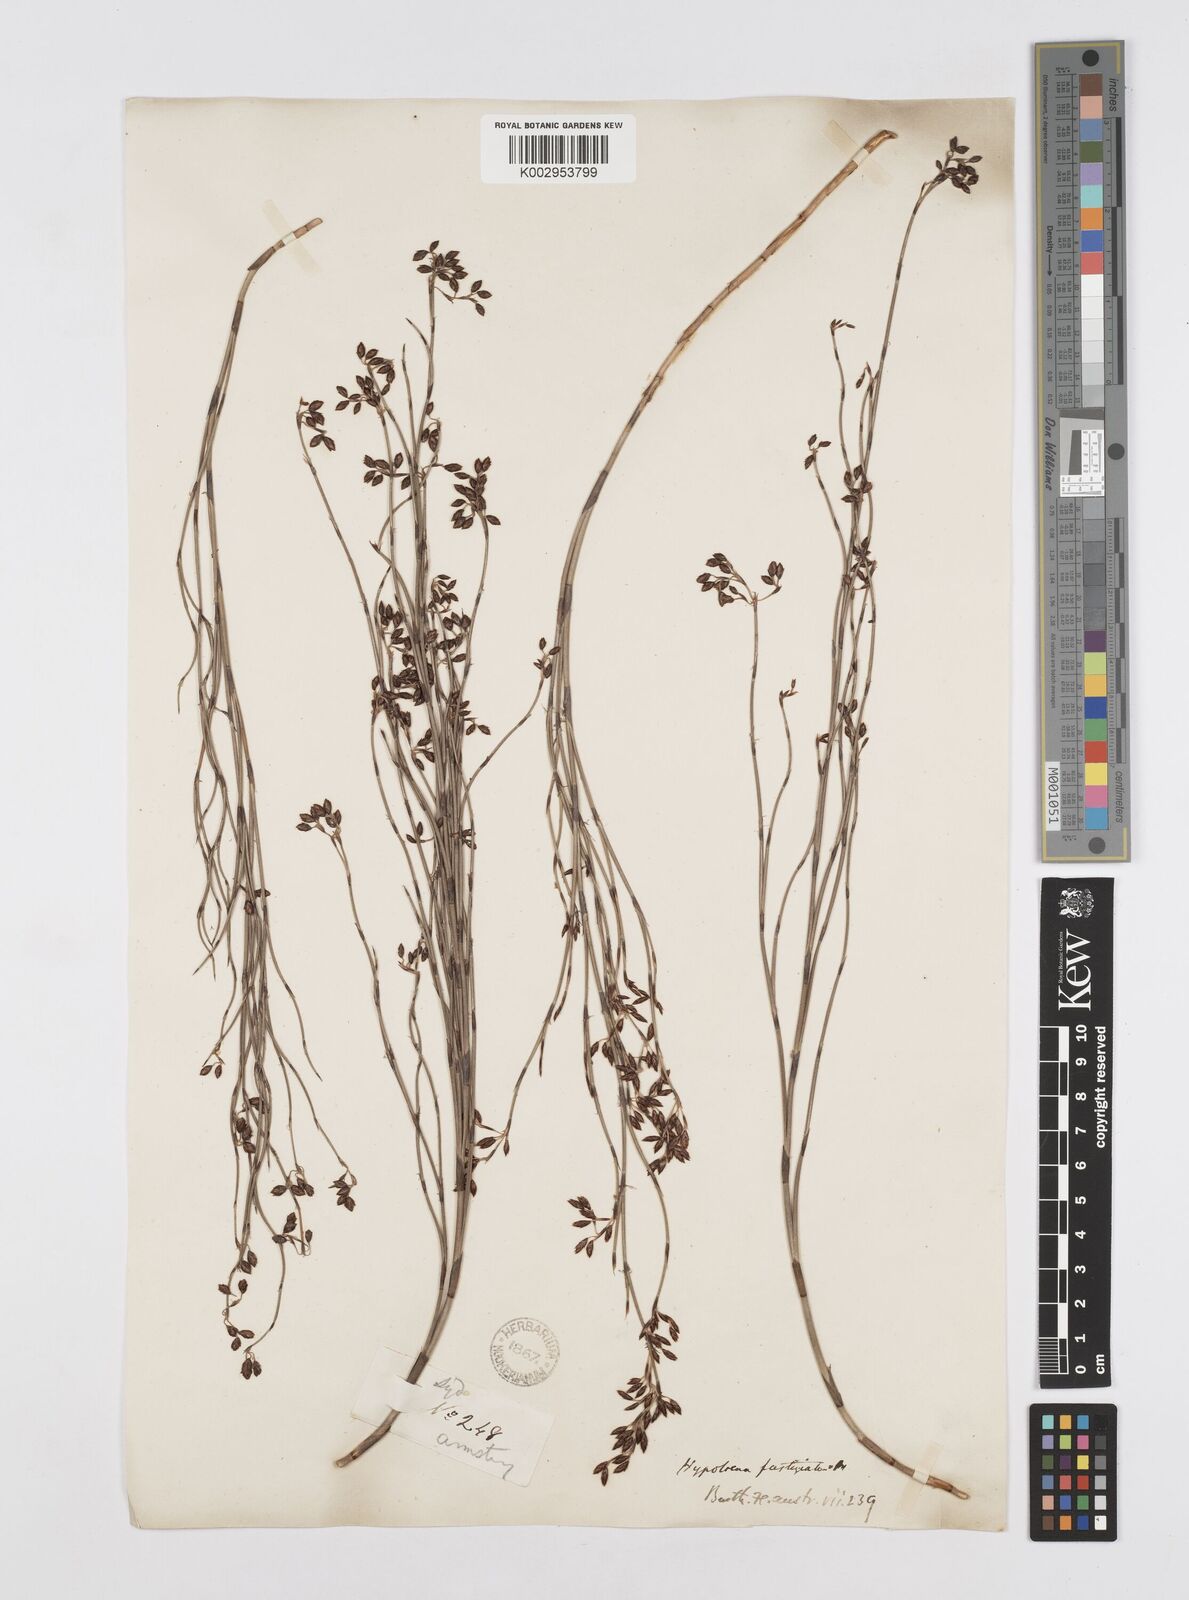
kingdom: Plantae
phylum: Tracheophyta
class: Liliopsida
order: Poales
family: Restionaceae
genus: Hypolaena
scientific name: Hypolaena fastigiata
